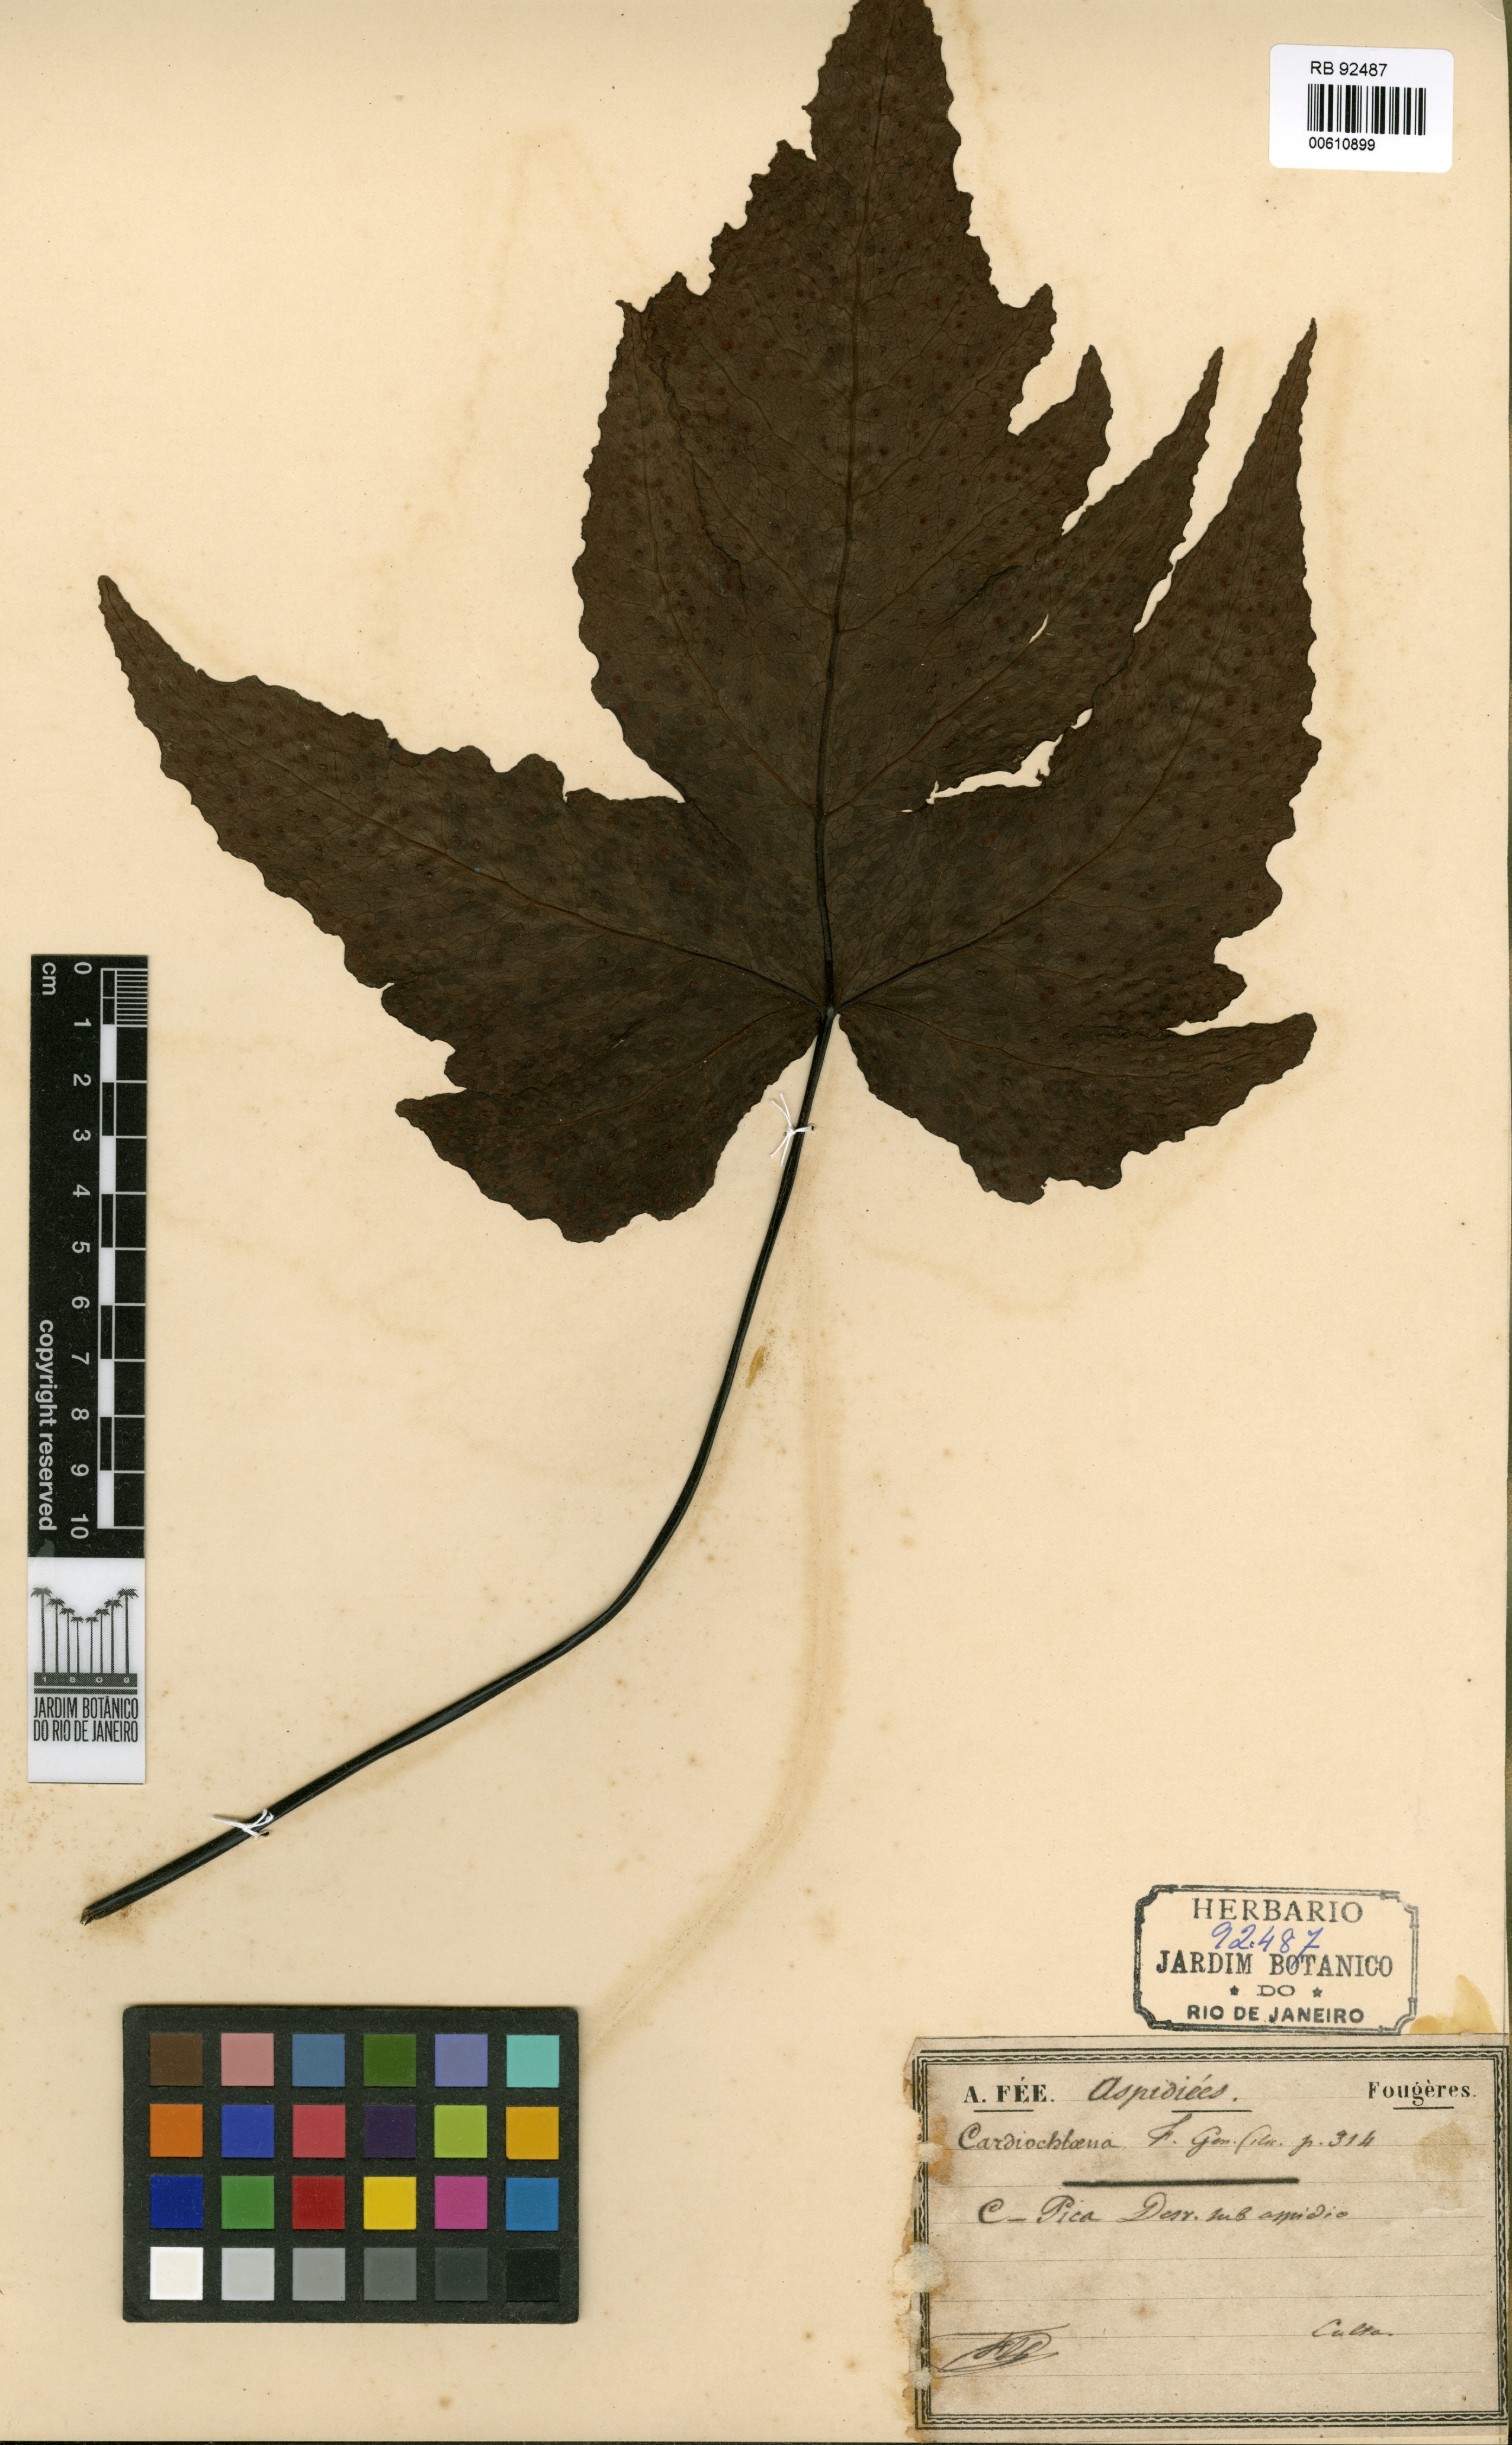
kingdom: Plantae
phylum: Tracheophyta
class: Polypodiopsida
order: Polypodiales
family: Tectariaceae
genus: Tectaria
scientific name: Tectaria
